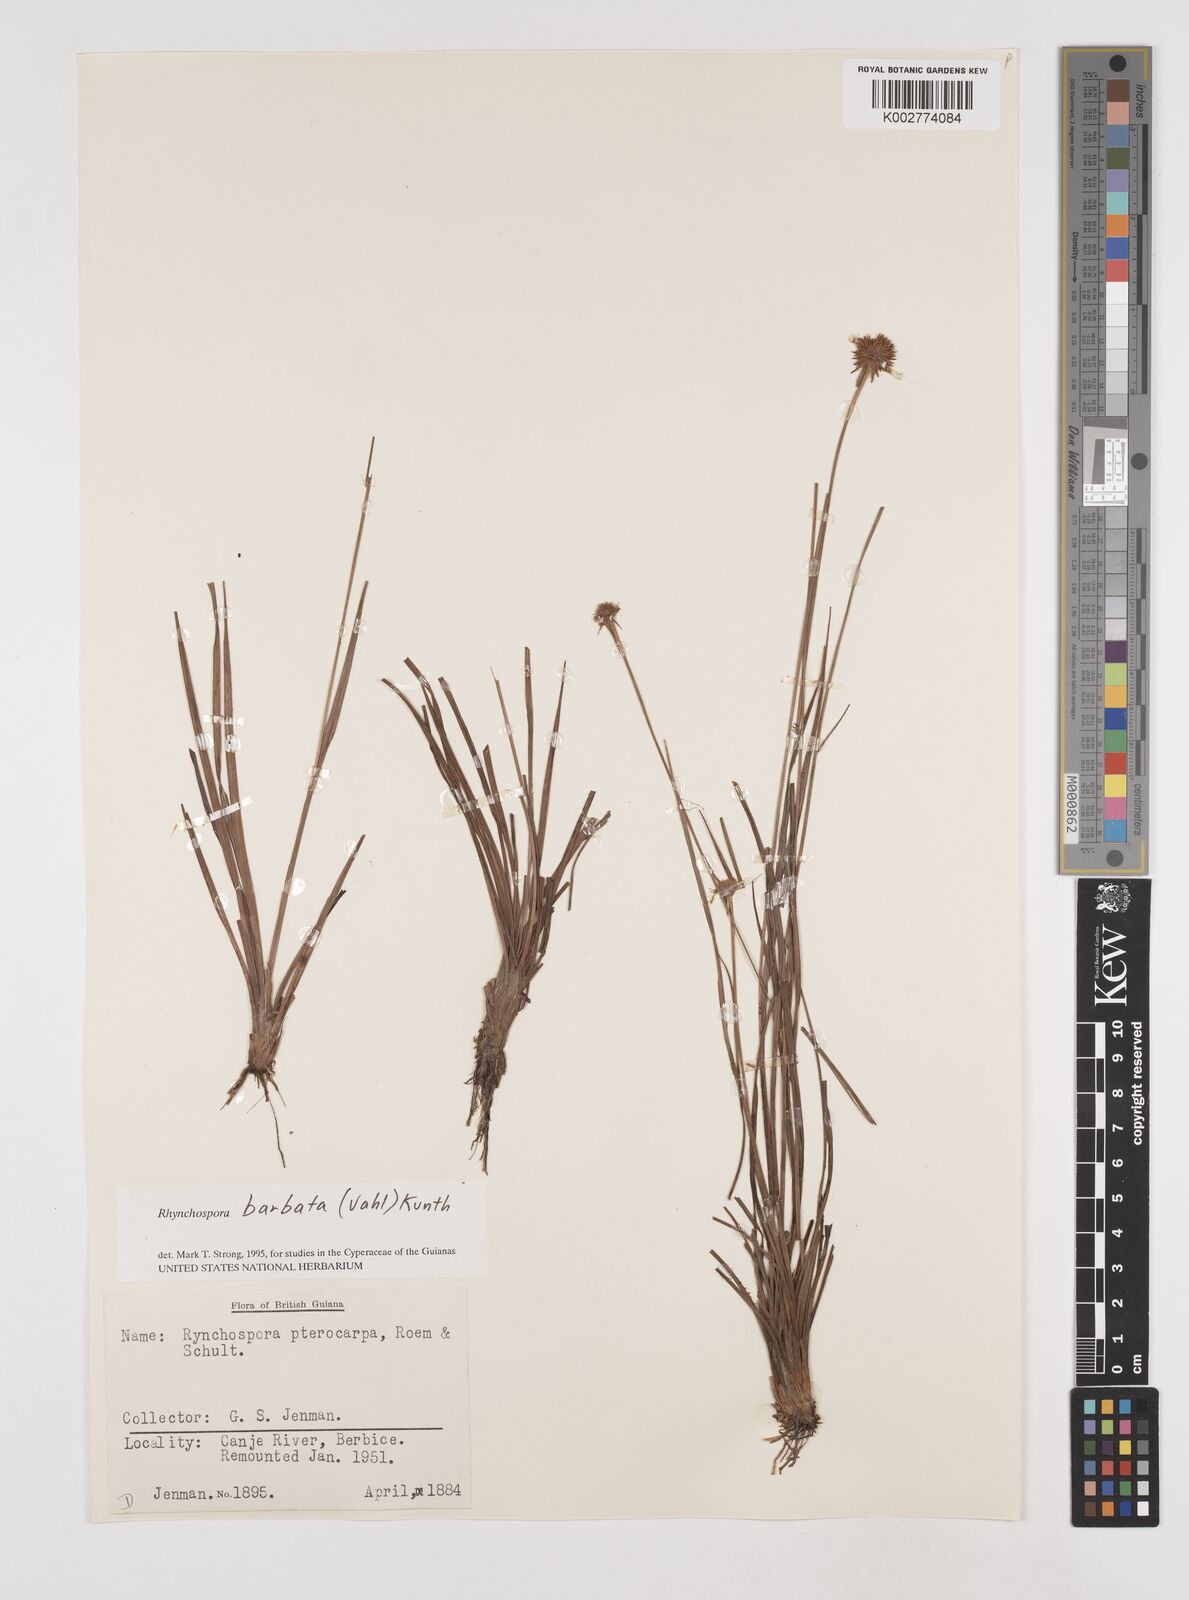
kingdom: Plantae
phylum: Tracheophyta
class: Liliopsida
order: Poales
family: Cyperaceae
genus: Rhynchospora
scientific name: Rhynchospora barbata
